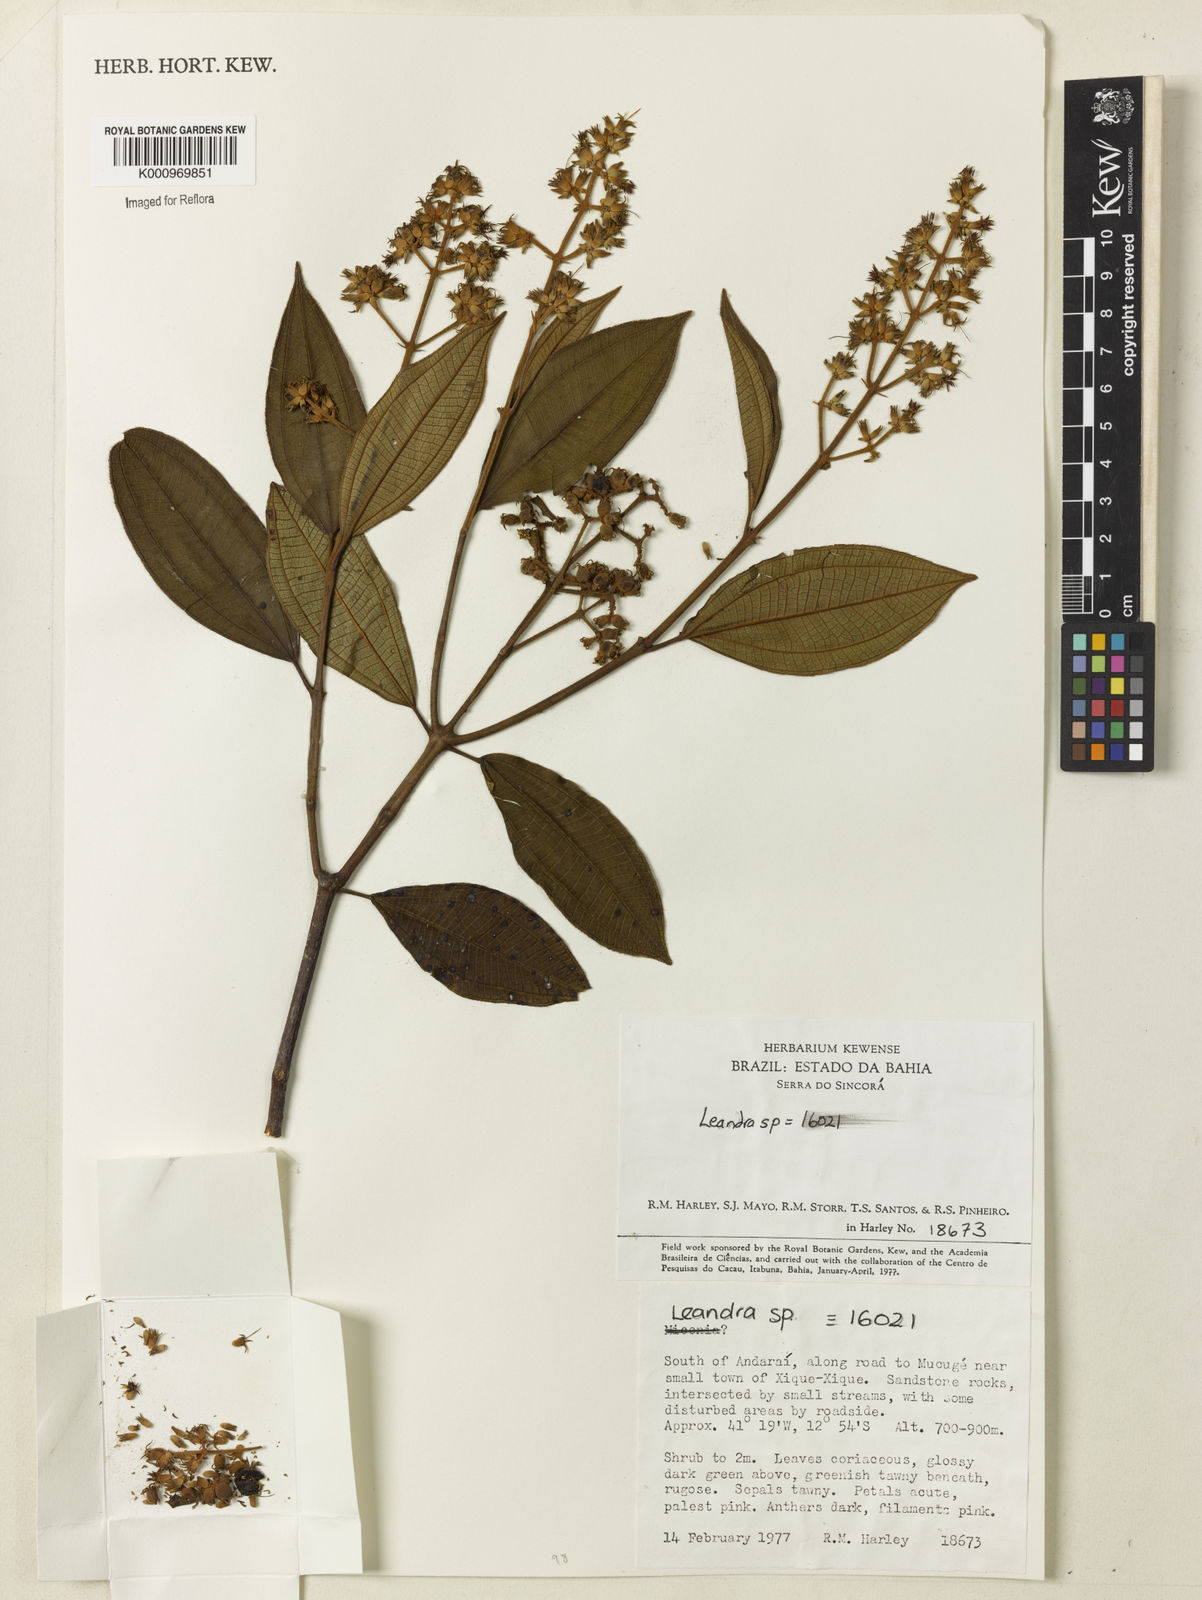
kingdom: Plantae
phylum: Tracheophyta
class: Magnoliopsida
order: Myrtales
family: Melastomataceae
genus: Miconia
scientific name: Miconia
